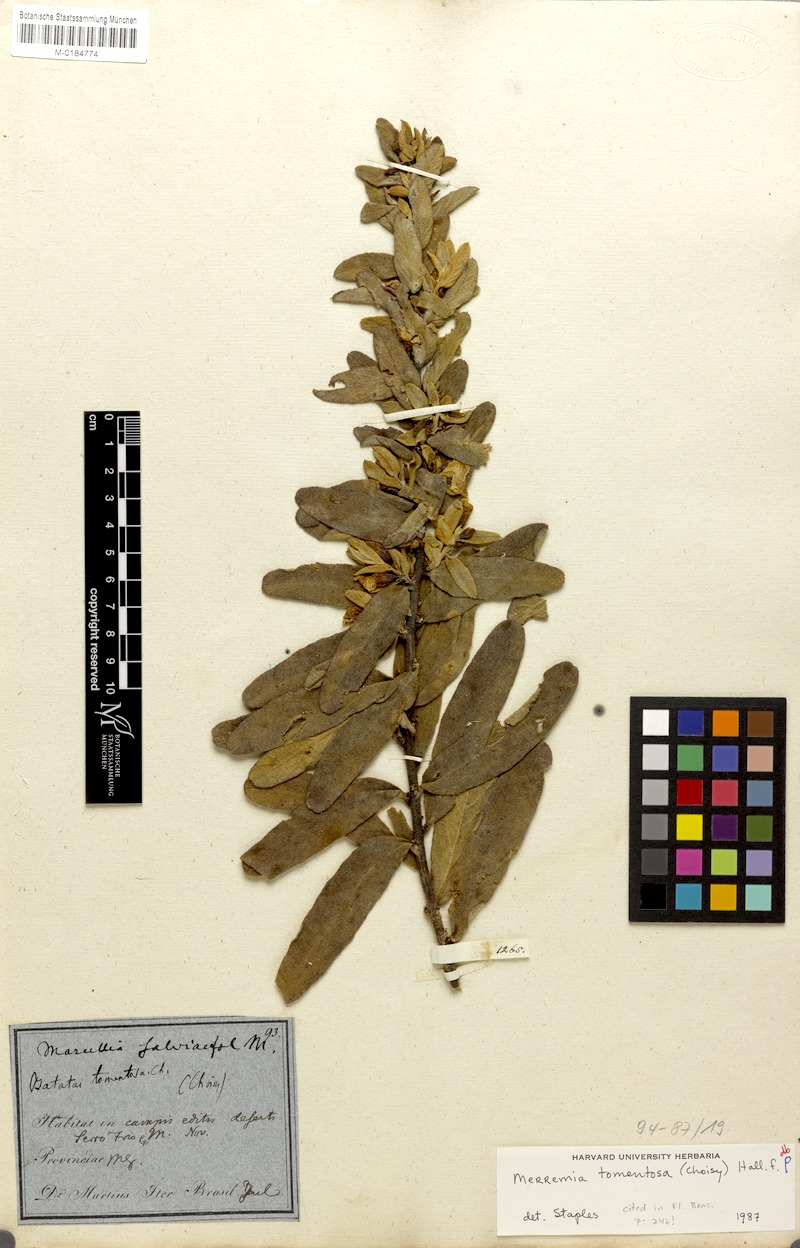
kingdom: Plantae
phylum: Tracheophyta
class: Magnoliopsida
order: Solanales
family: Convolvulaceae
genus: Distimake
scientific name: Distimake tomentosus
